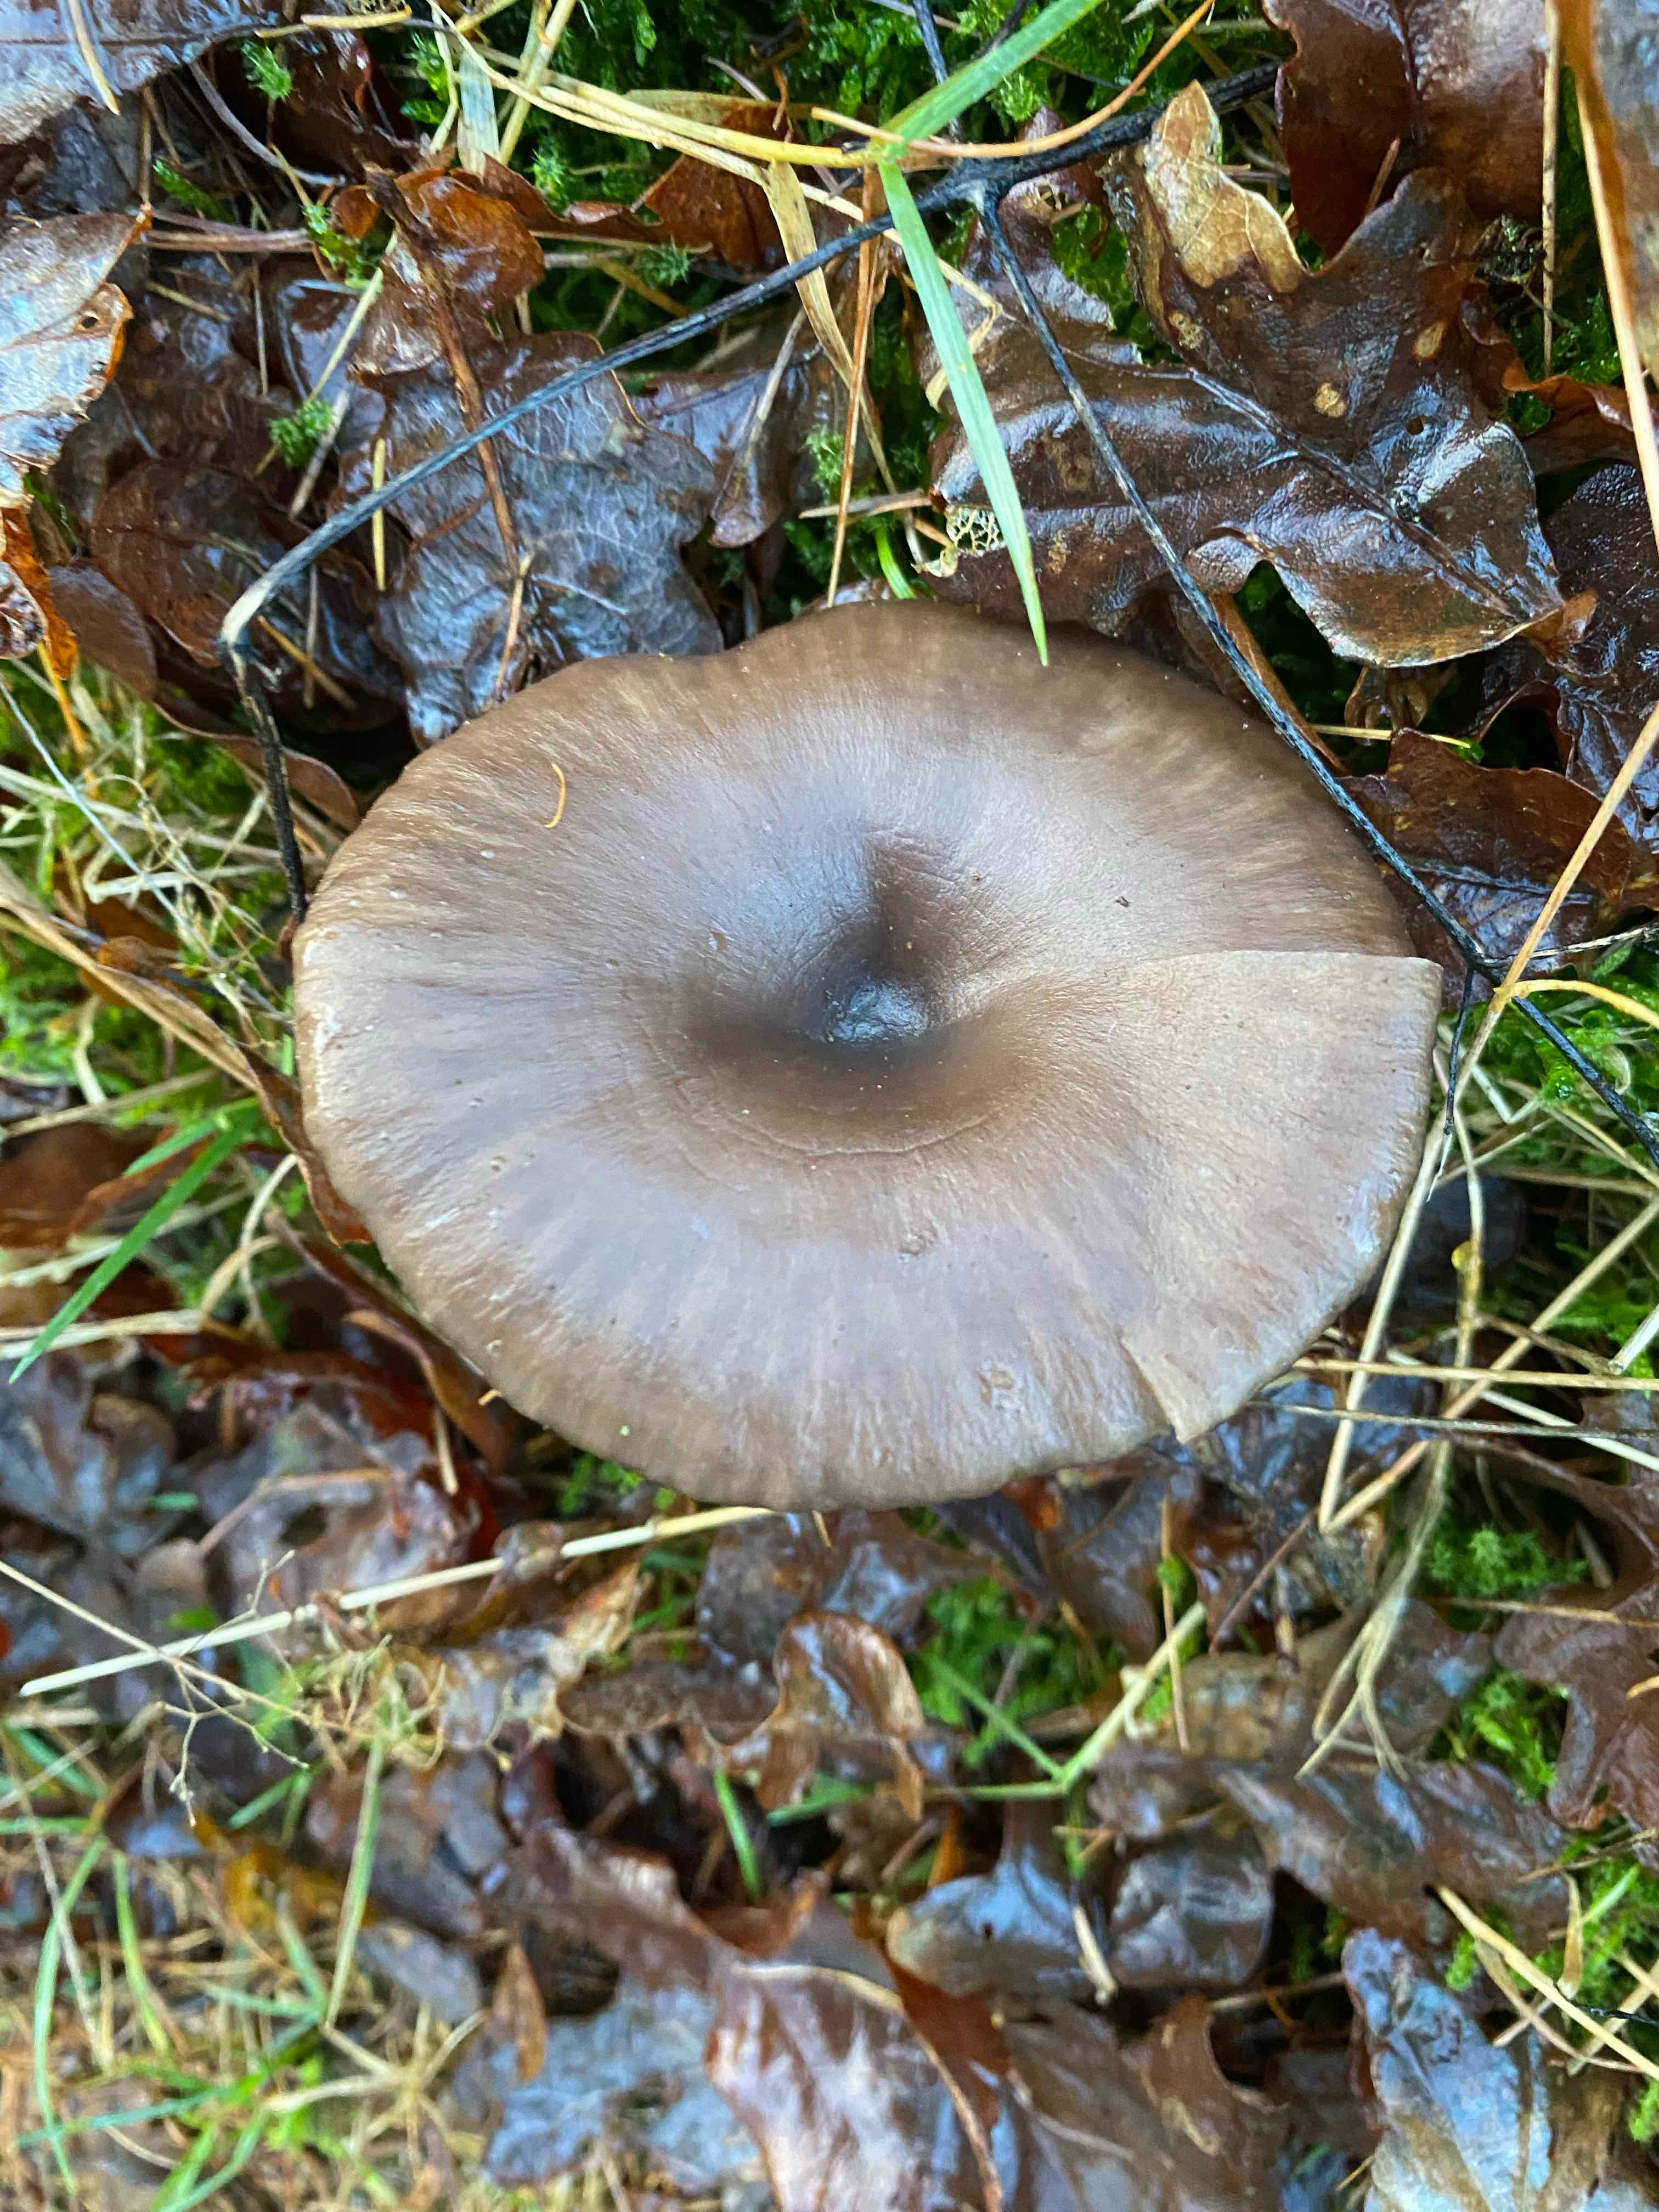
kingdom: Fungi
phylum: Basidiomycota
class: Agaricomycetes
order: Agaricales
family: Pseudoclitocybaceae
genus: Pseudoclitocybe
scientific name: Pseudoclitocybe cyathiformis
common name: almindelig bægertragthat
